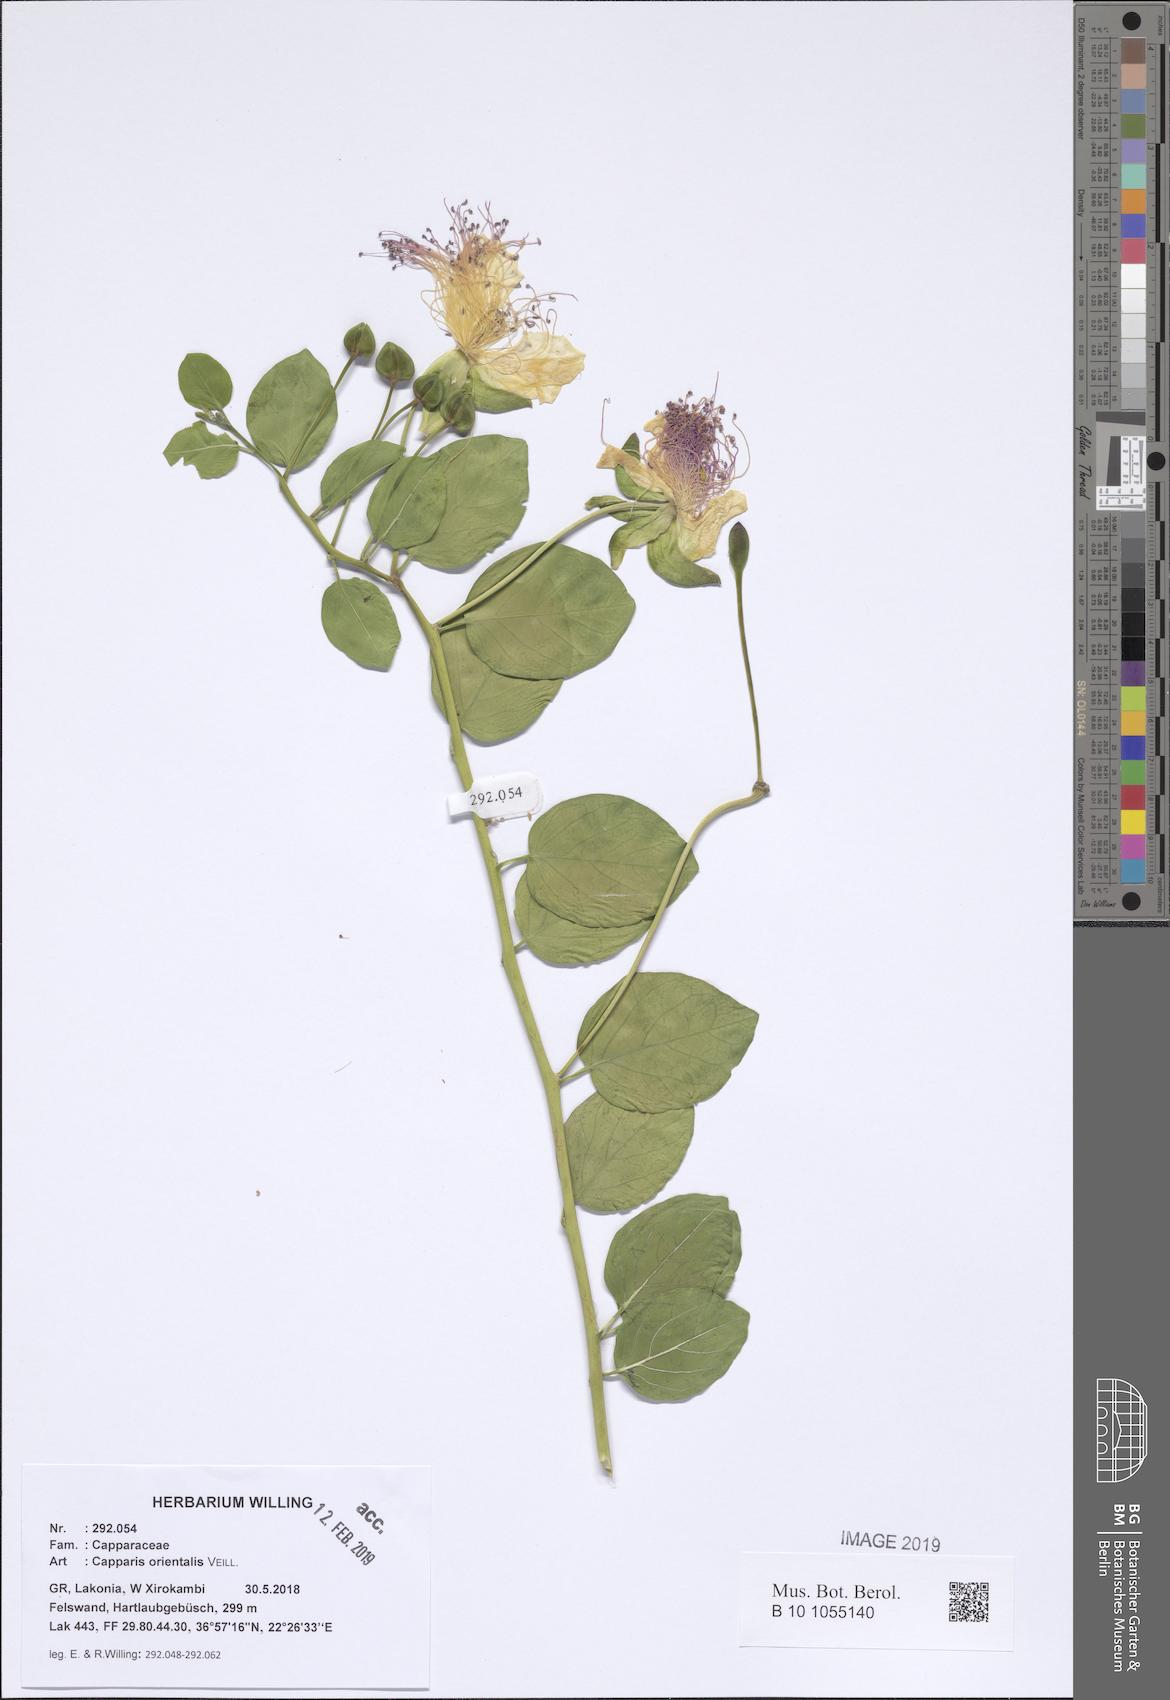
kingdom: Plantae
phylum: Tracheophyta
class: Magnoliopsida
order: Brassicales
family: Capparaceae
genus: Capparis
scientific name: Capparis spinosa
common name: Caper
